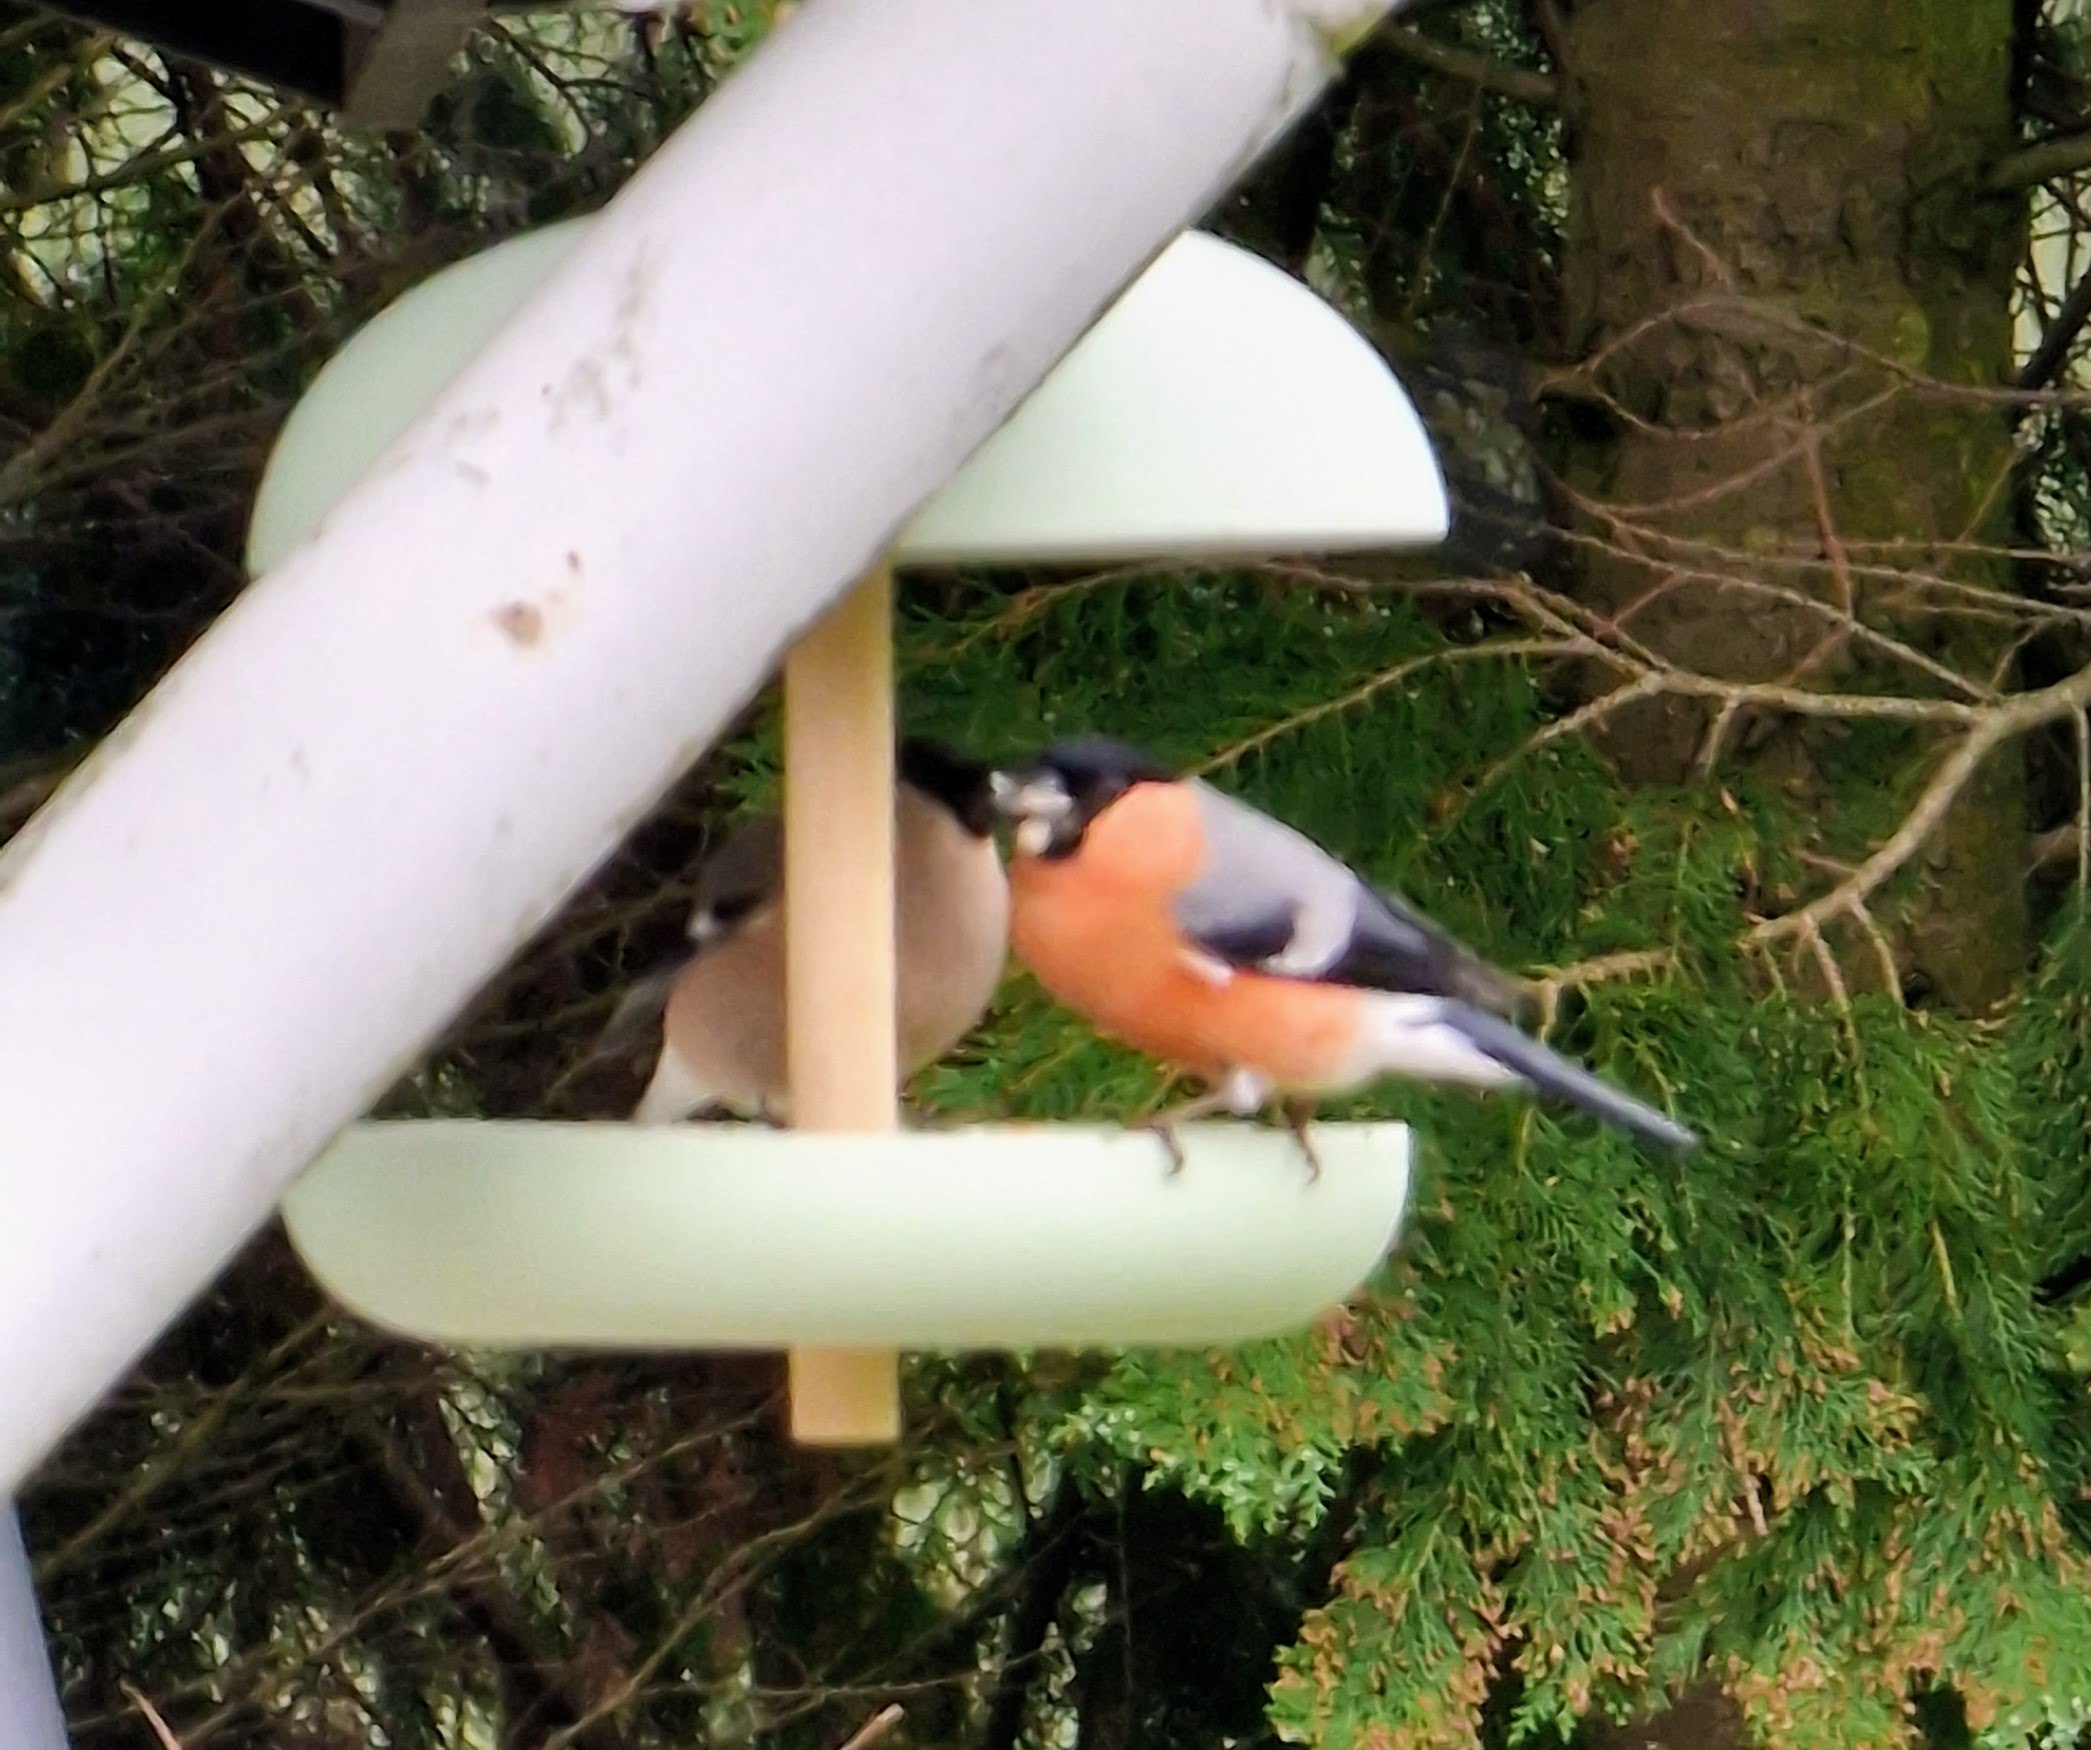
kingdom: Animalia
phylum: Chordata
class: Aves
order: Passeriformes
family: Fringillidae
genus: Pyrrhula
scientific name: Pyrrhula pyrrhula
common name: Dompap
